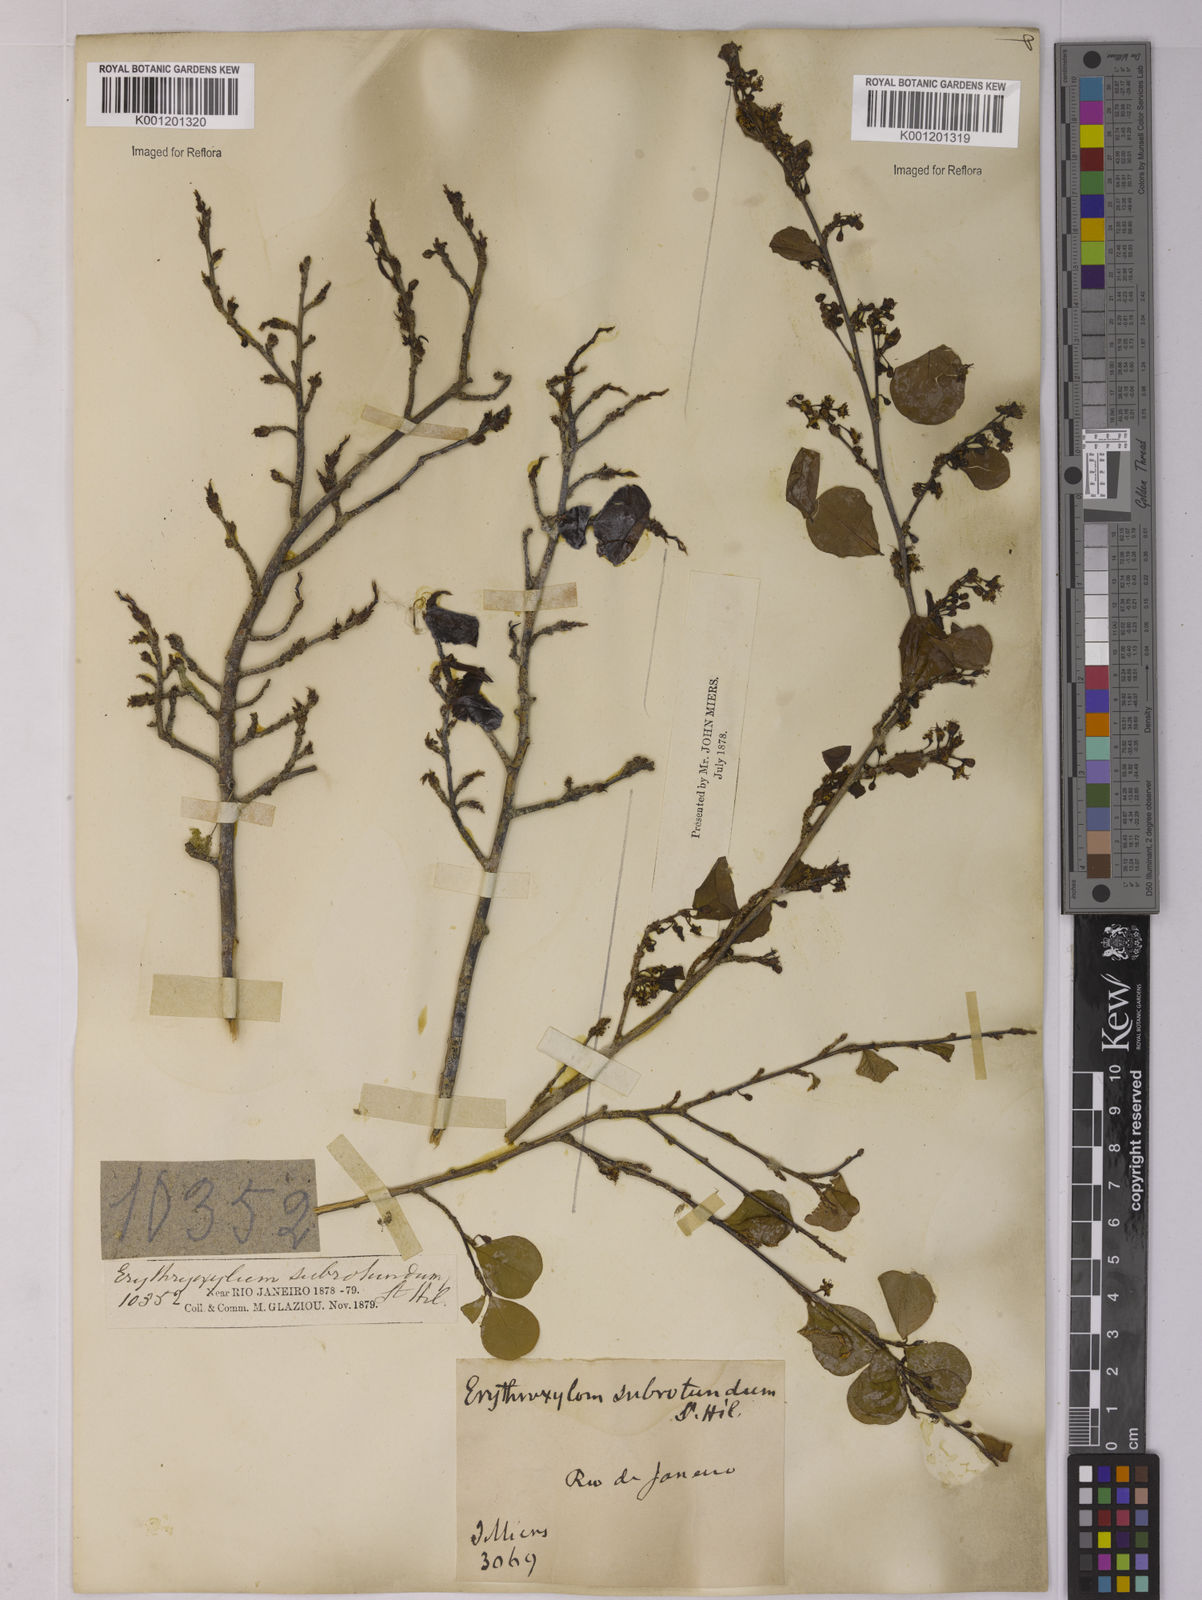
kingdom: Plantae
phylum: Tracheophyta
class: Magnoliopsida
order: Malpighiales
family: Erythroxylaceae
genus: Erythroxylum
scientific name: Erythroxylum subrotundum
